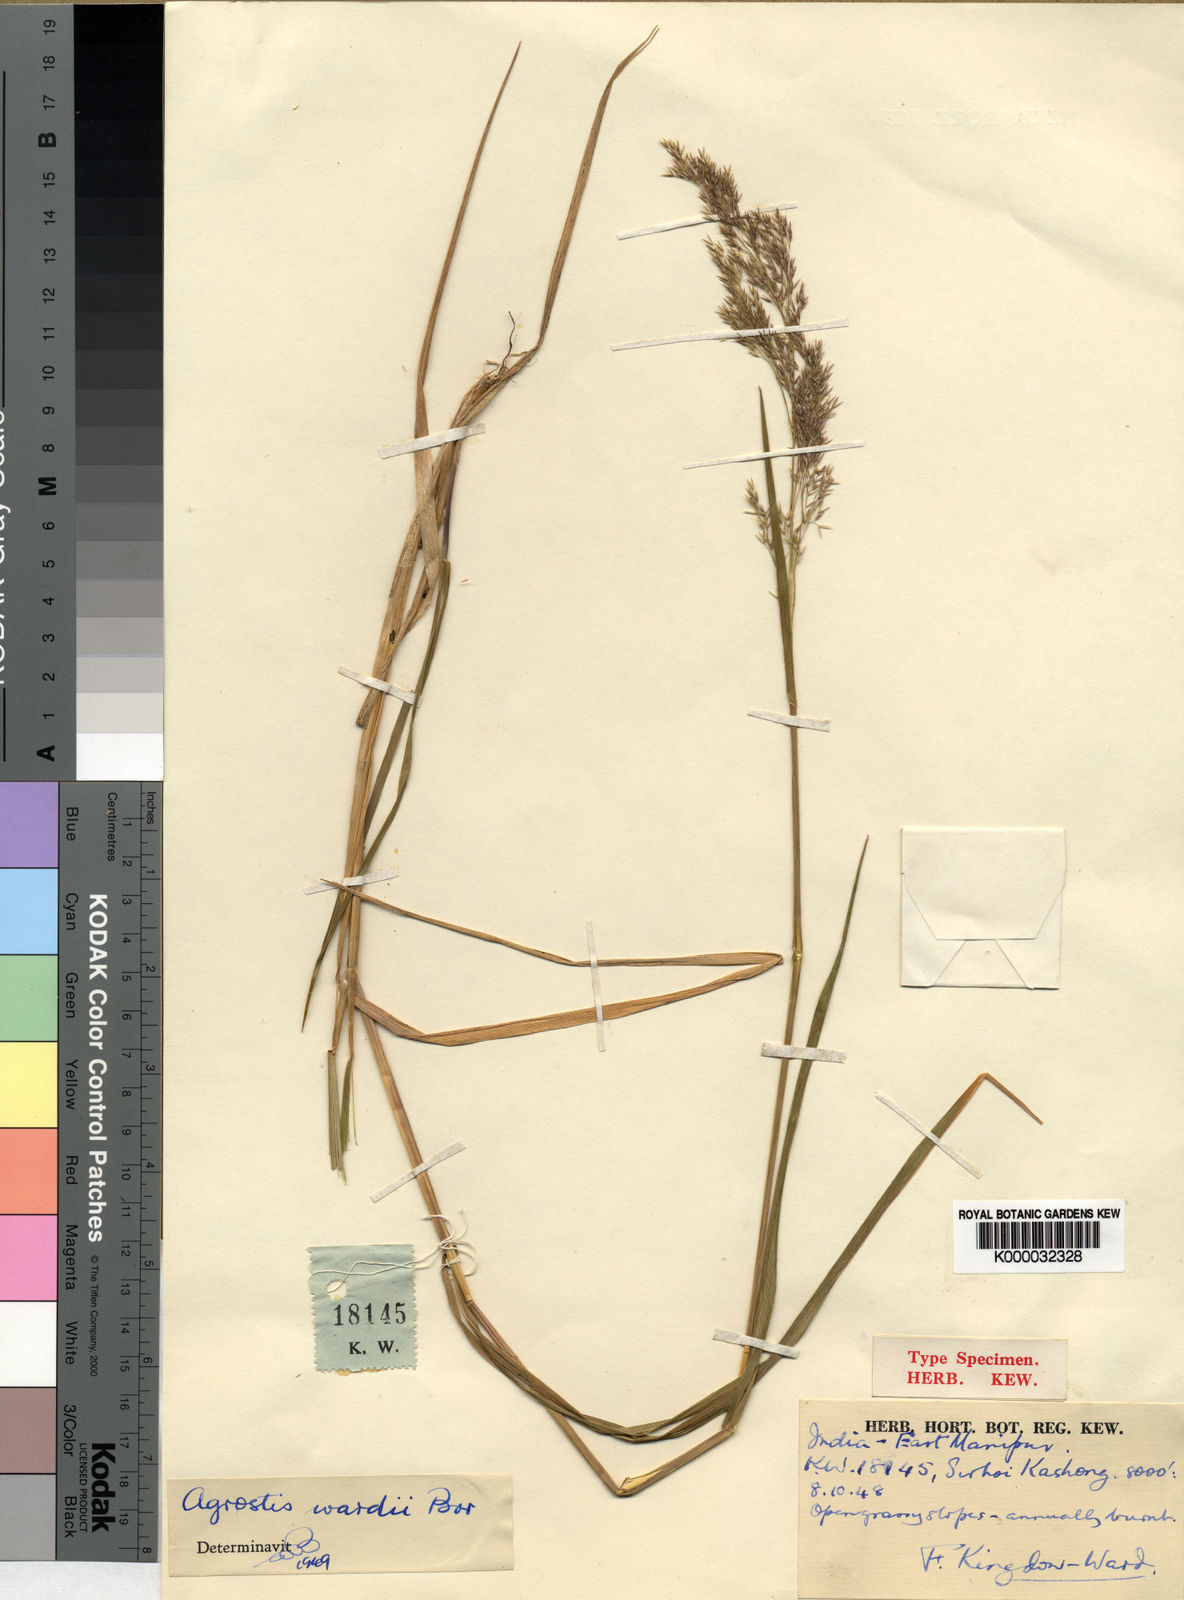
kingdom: Plantae
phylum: Tracheophyta
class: Liliopsida
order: Poales
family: Poaceae
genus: Agrostis
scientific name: Agrostis griffithiana
